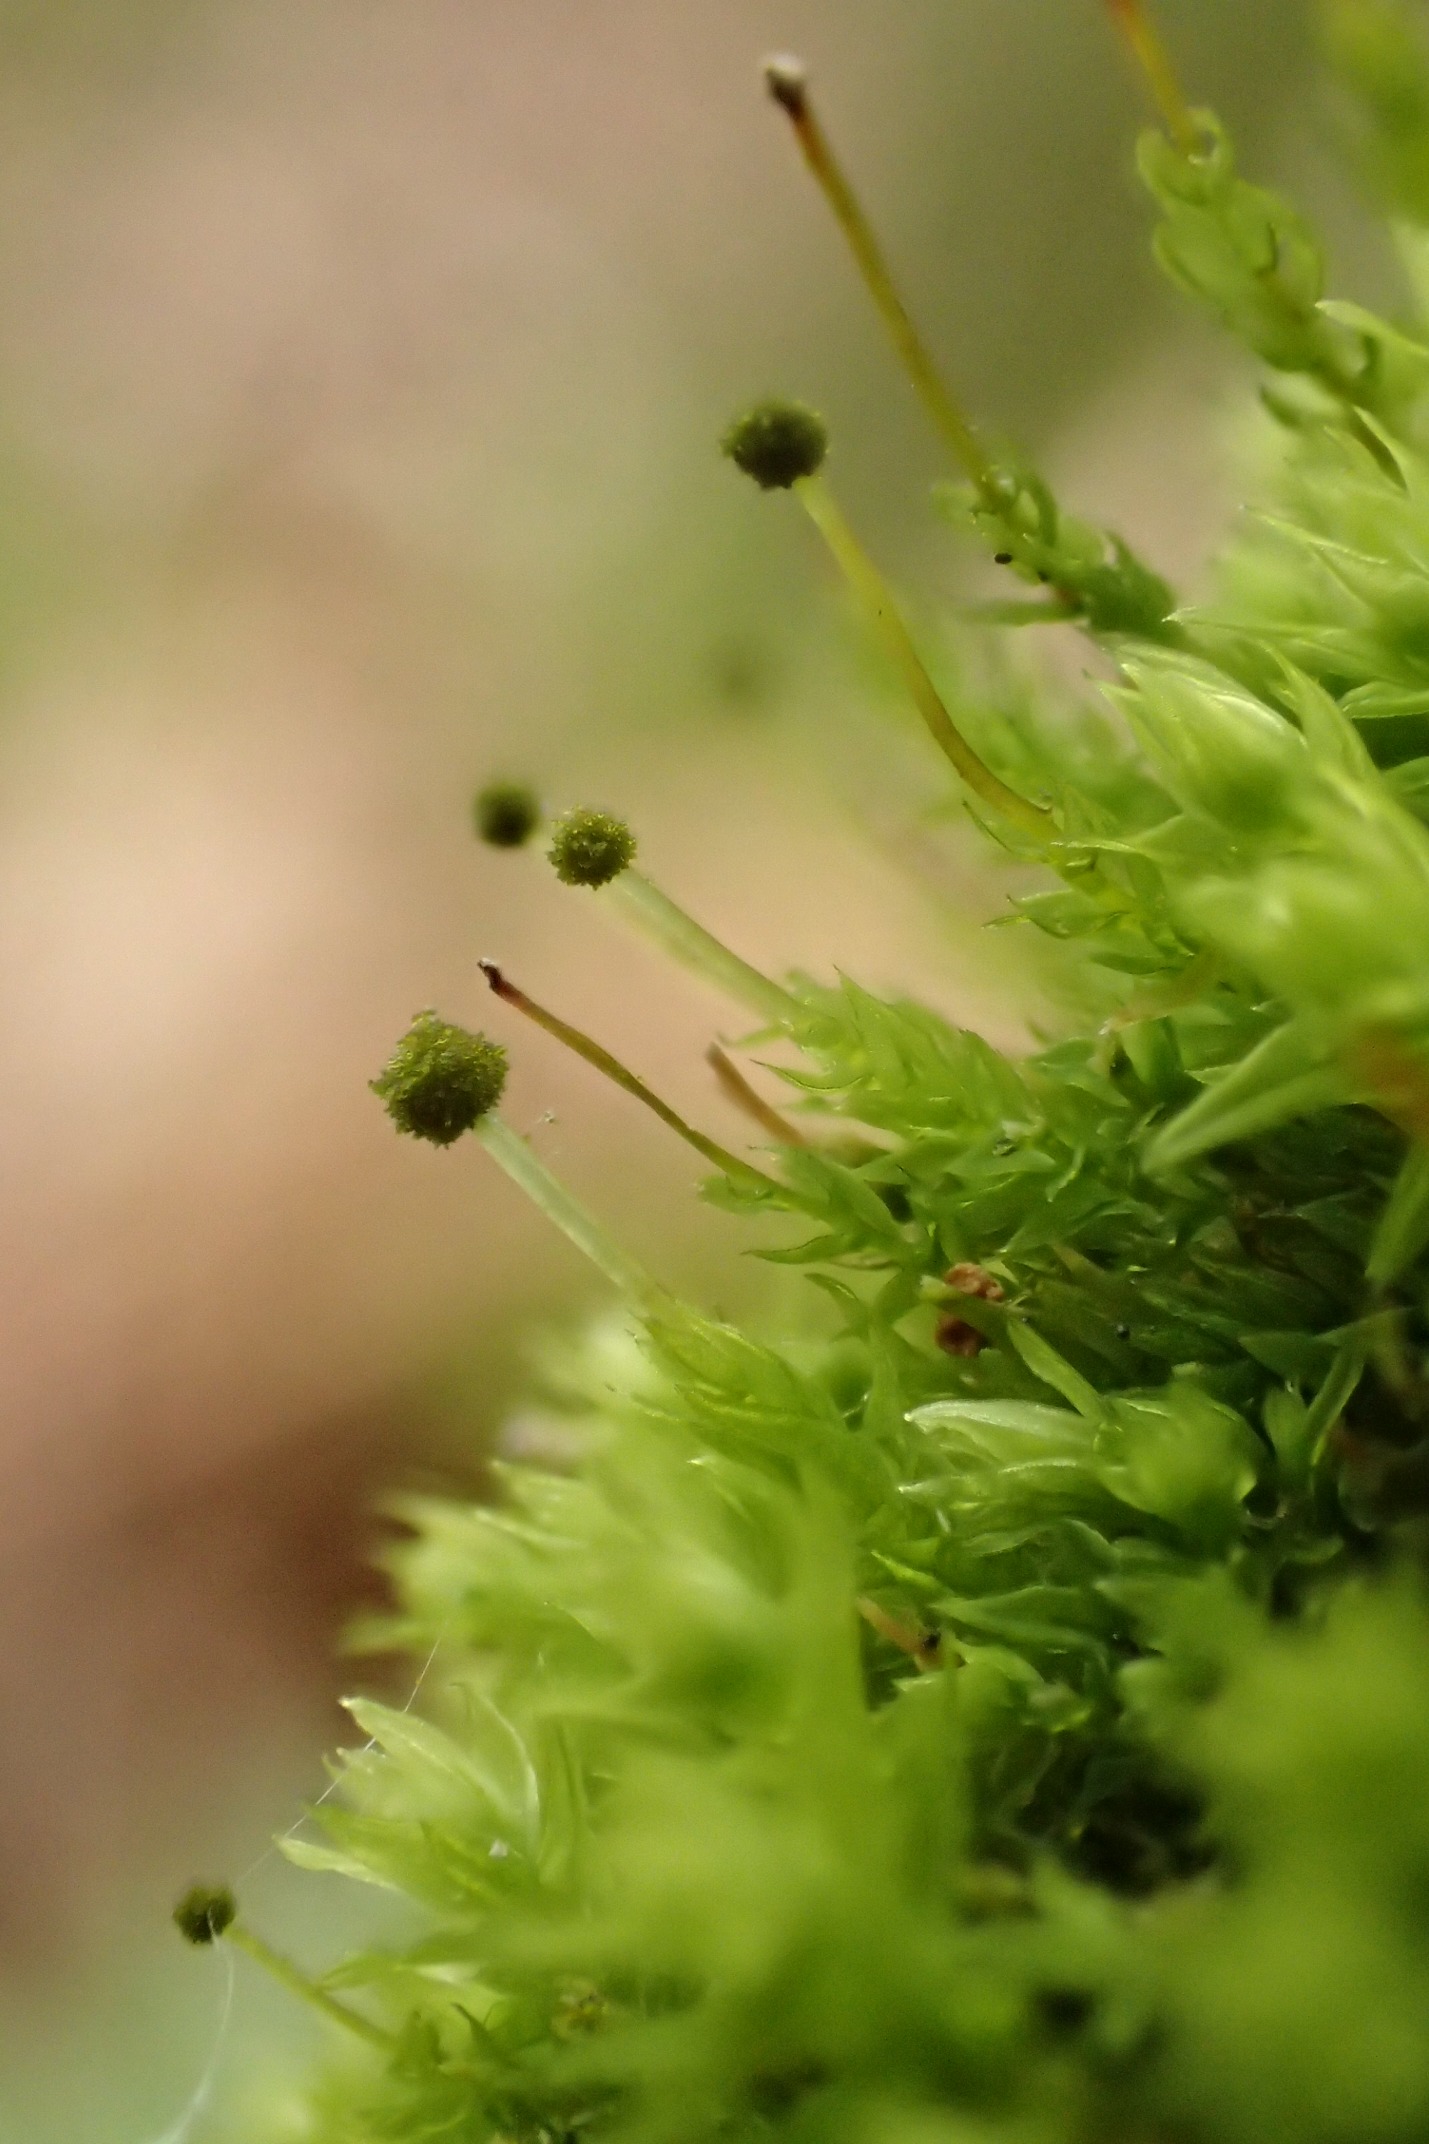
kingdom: Plantae
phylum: Bryophyta
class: Bryopsida
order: Aulacomniales
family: Aulacomniaceae
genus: Aulacomnium
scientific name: Aulacomnium androgynum
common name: Kugle-filtmos
